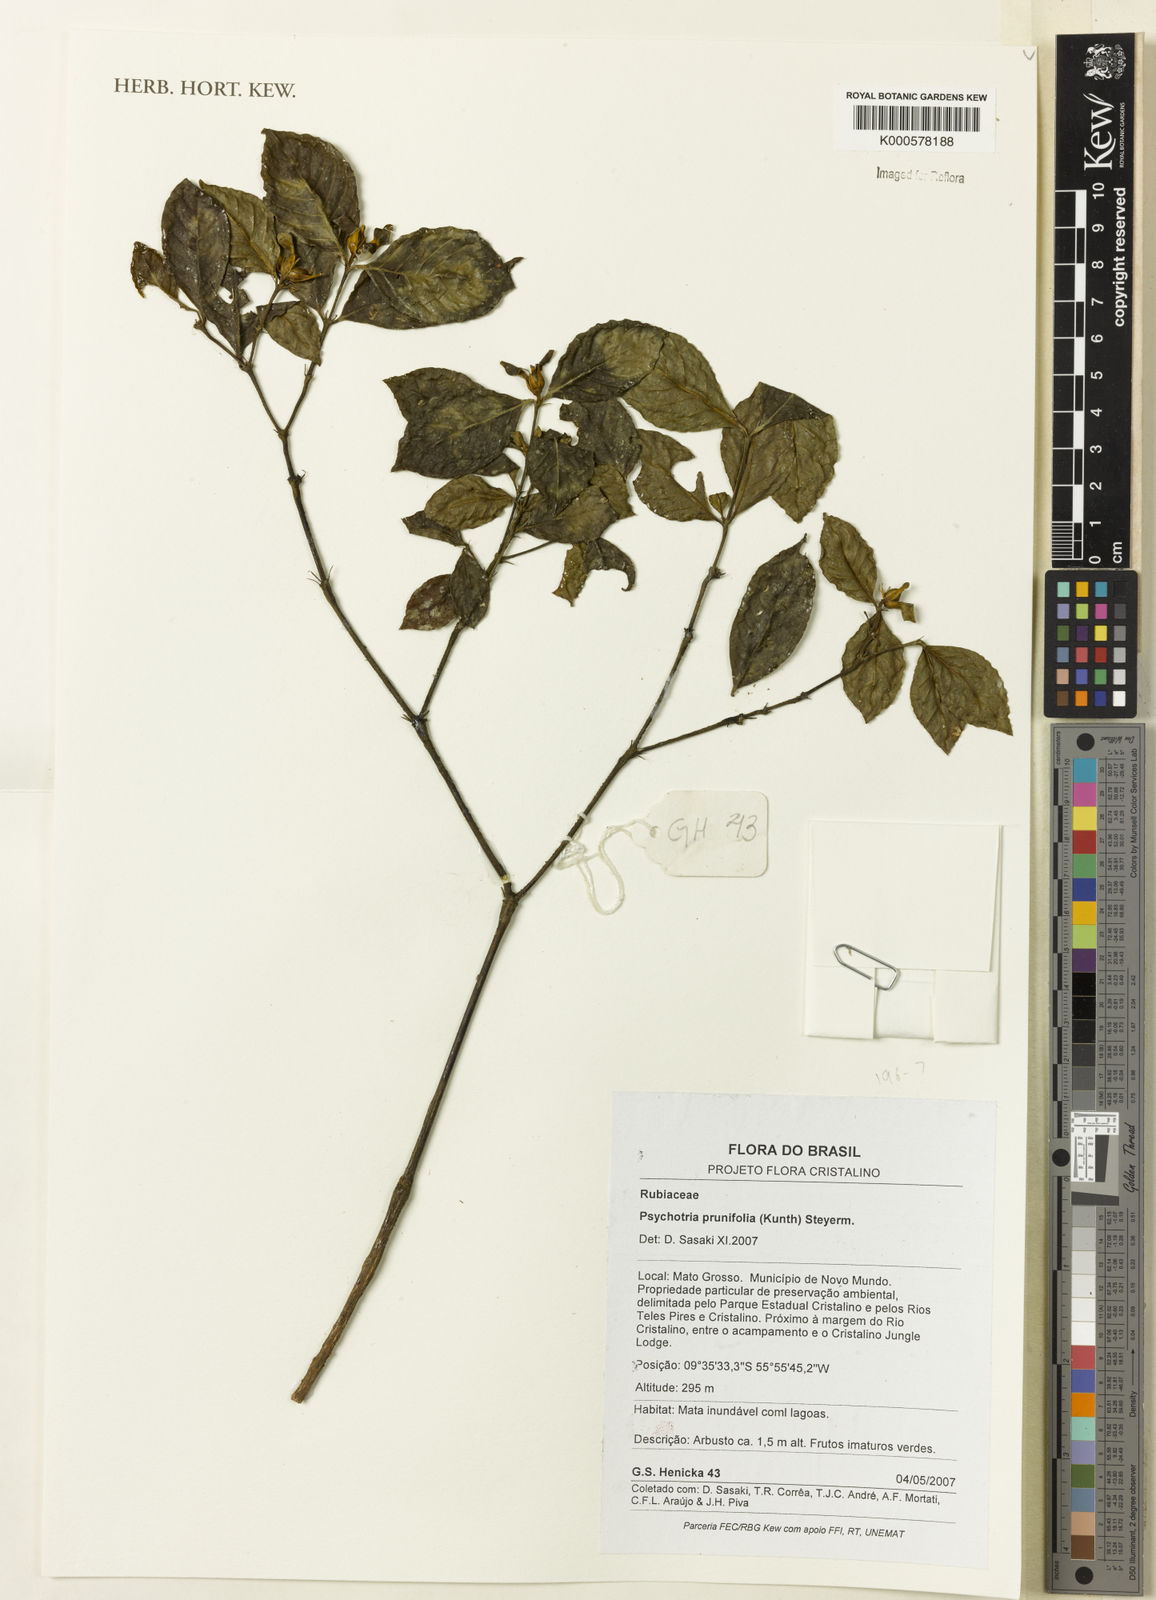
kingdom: Plantae
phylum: Tracheophyta
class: Magnoliopsida
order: Gentianales
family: Rubiaceae
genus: Palicourea
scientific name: Palicourea prunifolia
